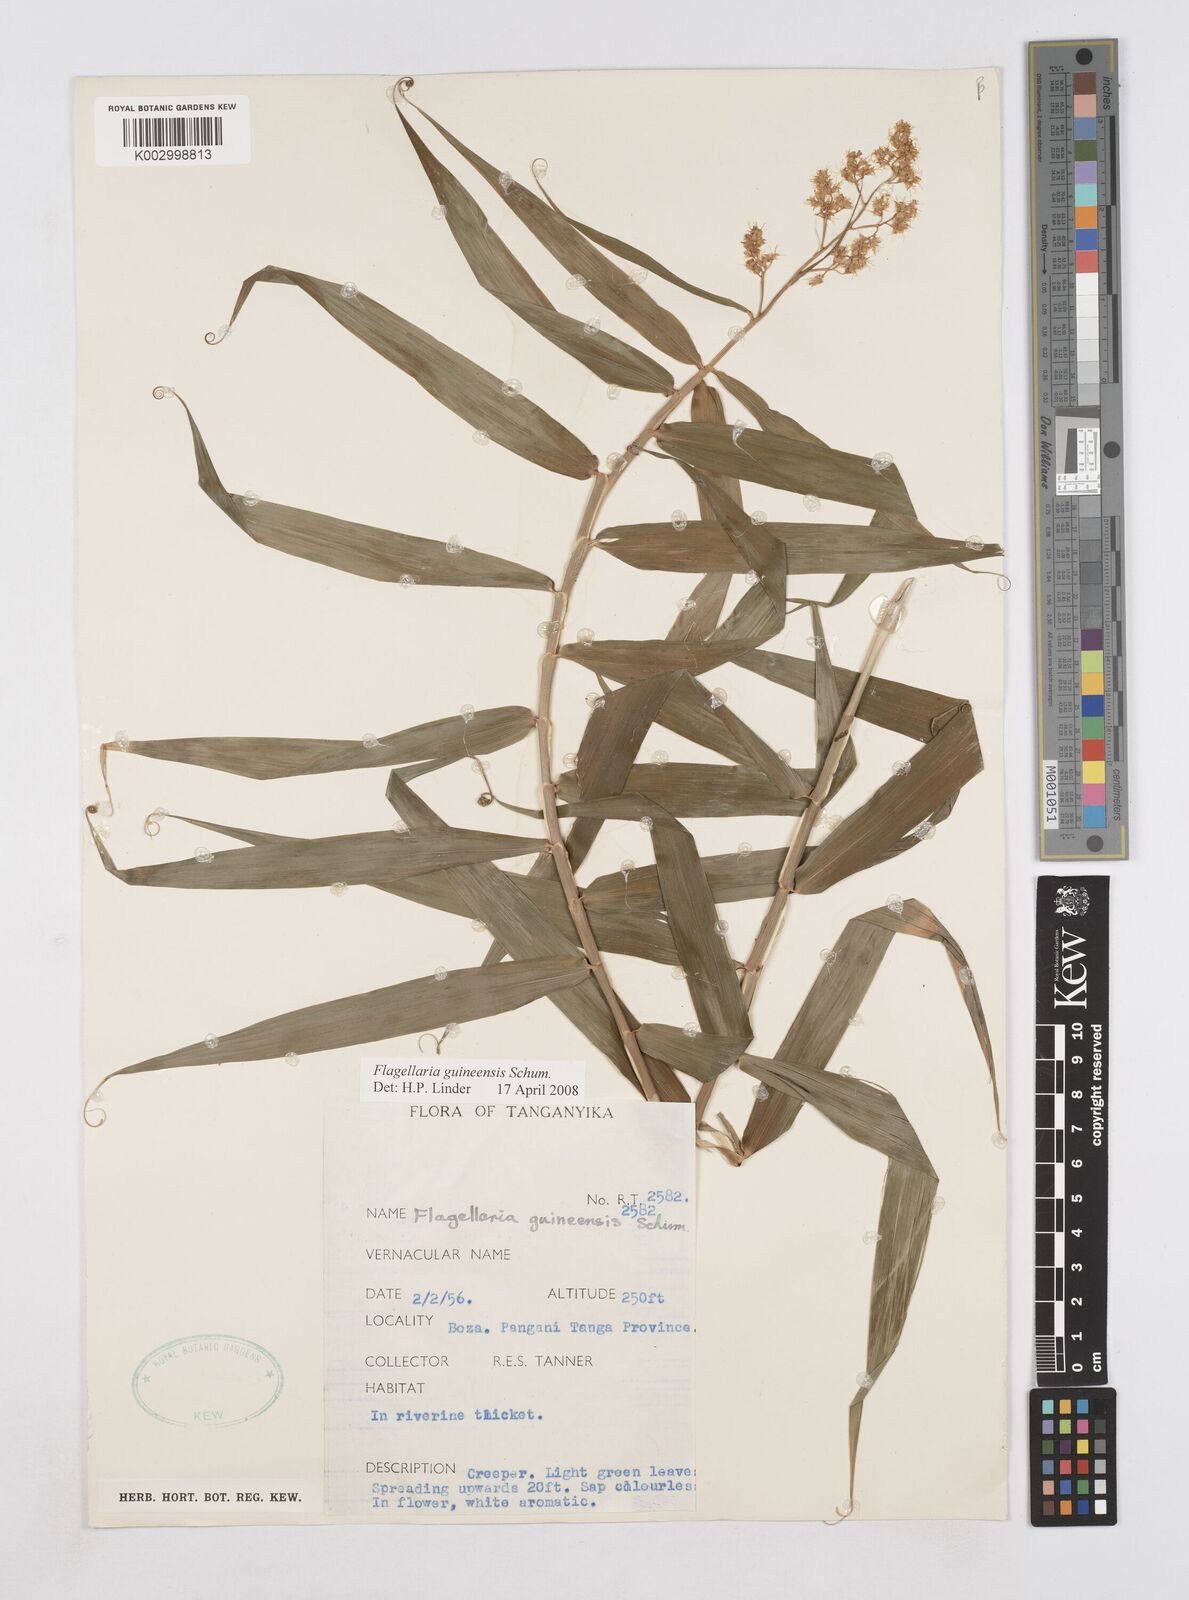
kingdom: Plantae
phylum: Tracheophyta
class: Liliopsida
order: Poales
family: Flagellariaceae
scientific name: Flagellariaceae
